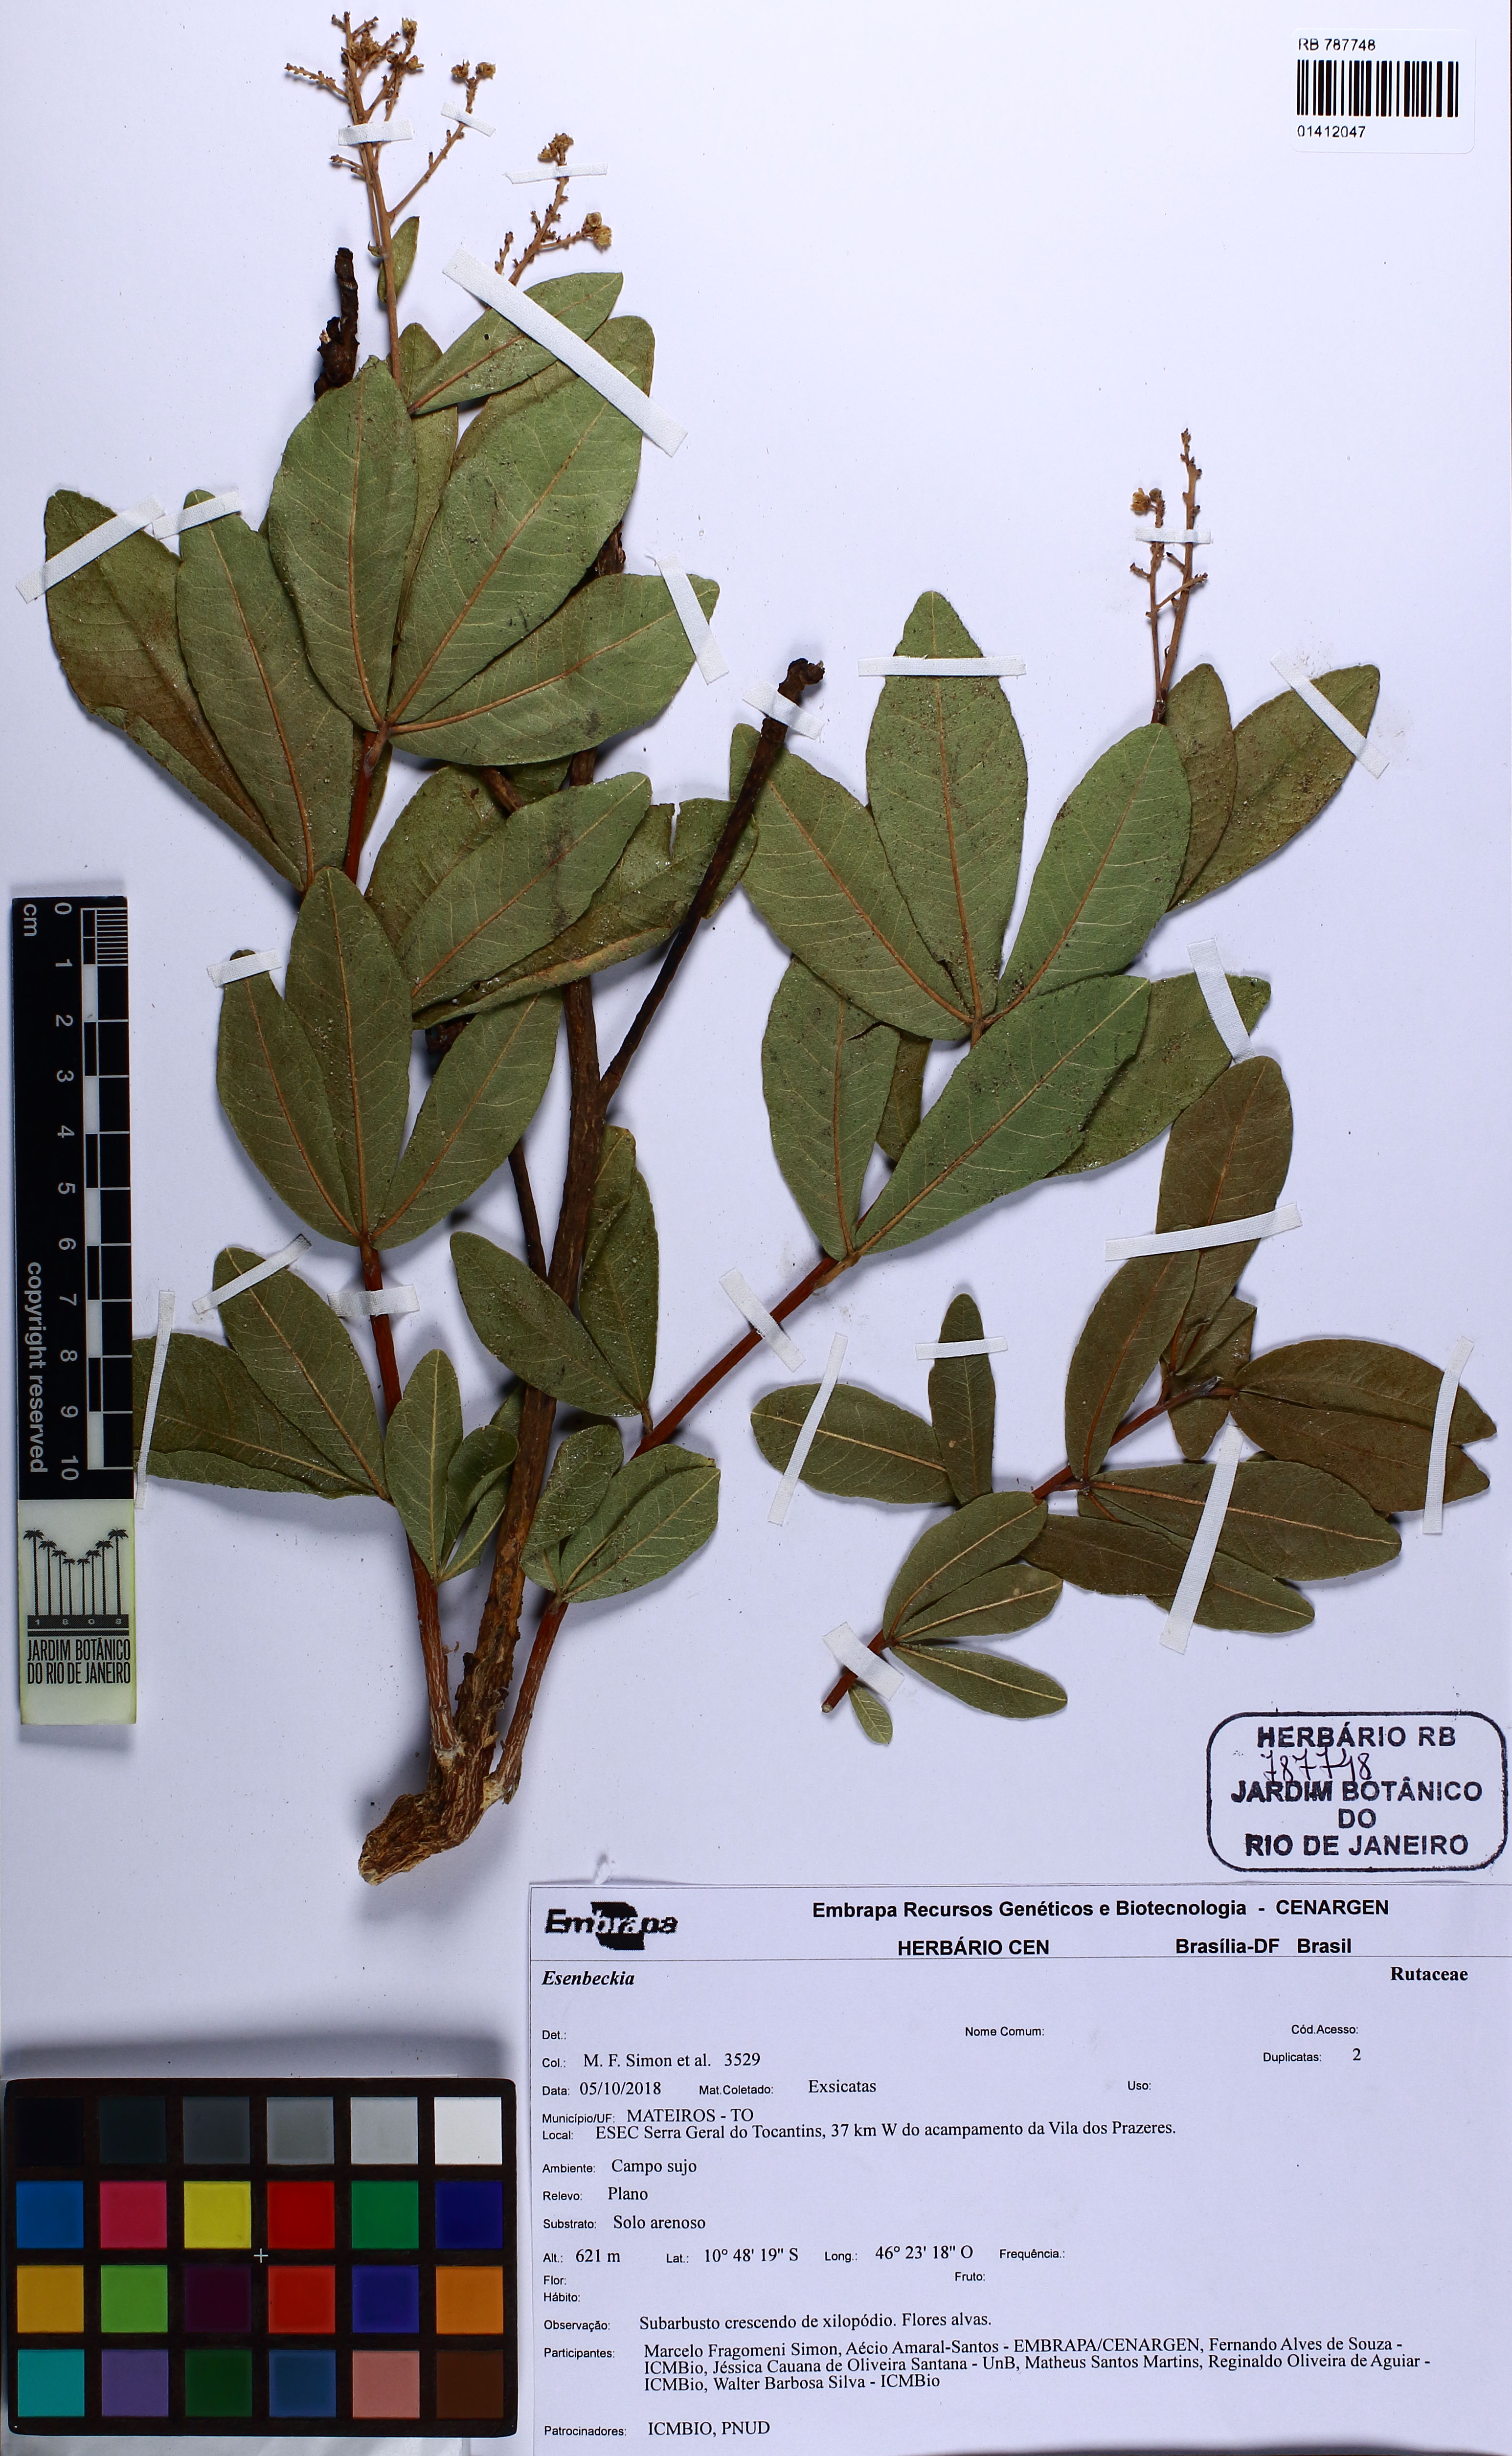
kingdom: Plantae
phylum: Tracheophyta
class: Magnoliopsida
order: Sapindales
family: Rutaceae
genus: Esenbeckia
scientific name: Esenbeckia
